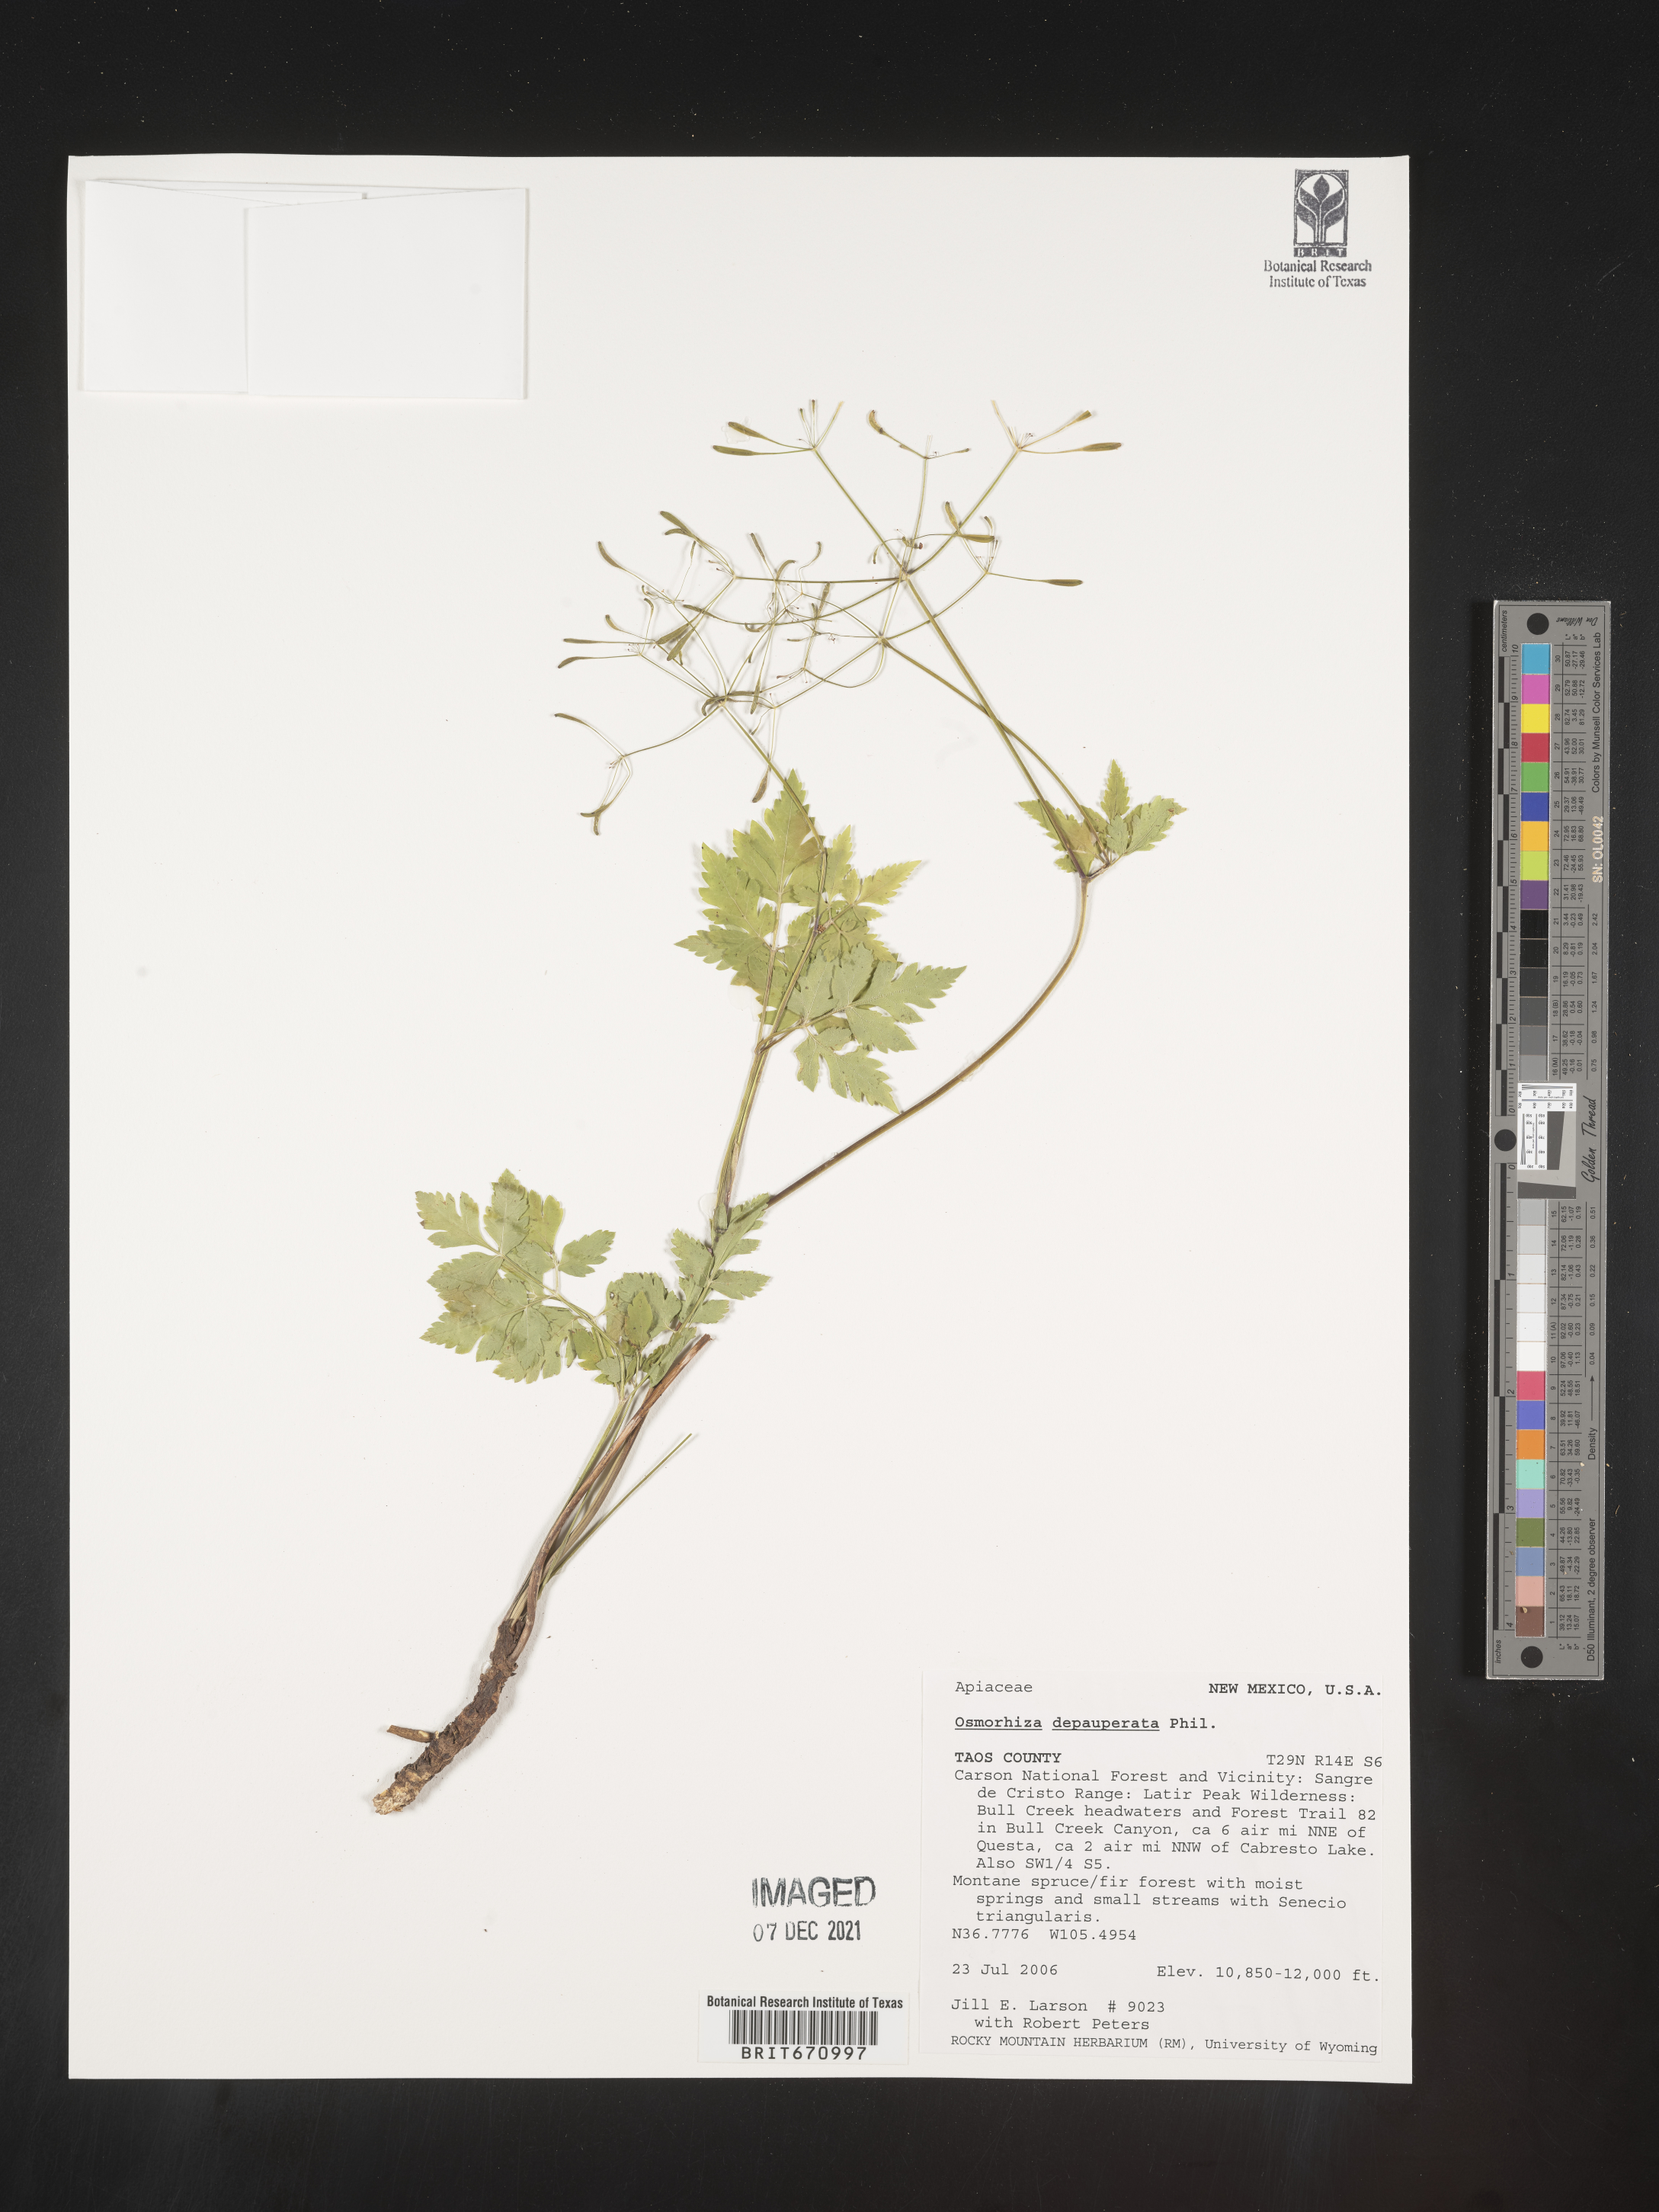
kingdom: Plantae
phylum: Tracheophyta
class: Magnoliopsida
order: Apiales
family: Apiaceae
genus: Osmorhiza
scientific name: Osmorhiza depauperata
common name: Blunt sweet cicely
